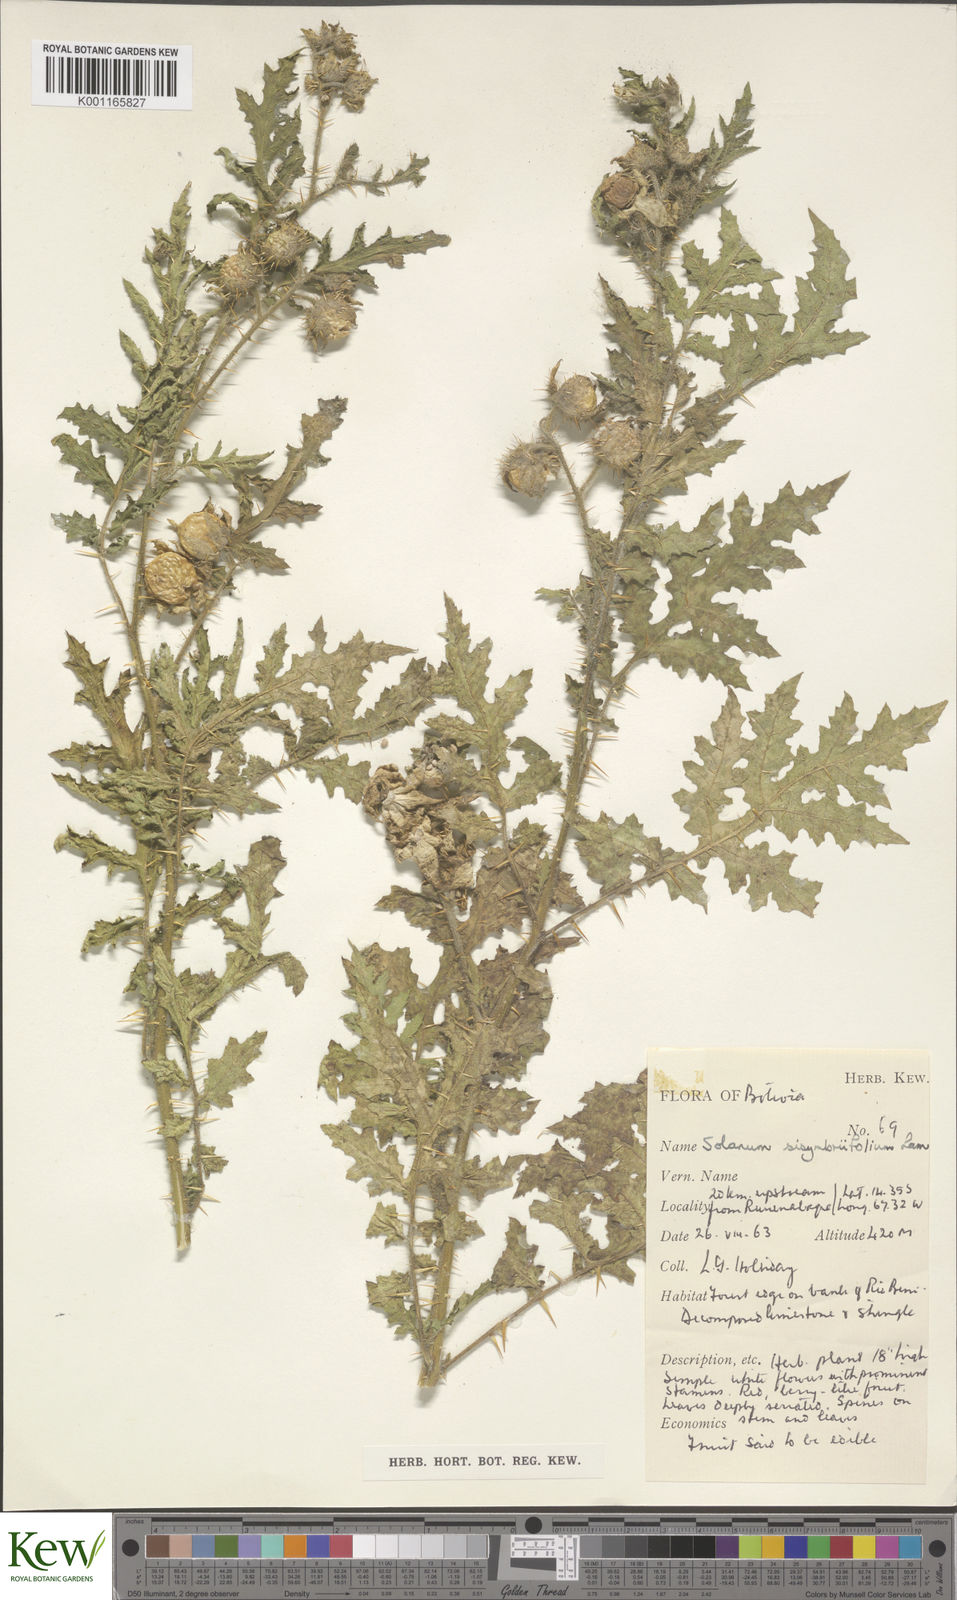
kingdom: Plantae
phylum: Tracheophyta
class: Magnoliopsida
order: Solanales
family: Solanaceae
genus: Solanum
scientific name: Solanum sisymbriifolium
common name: Red buffalo-bur
